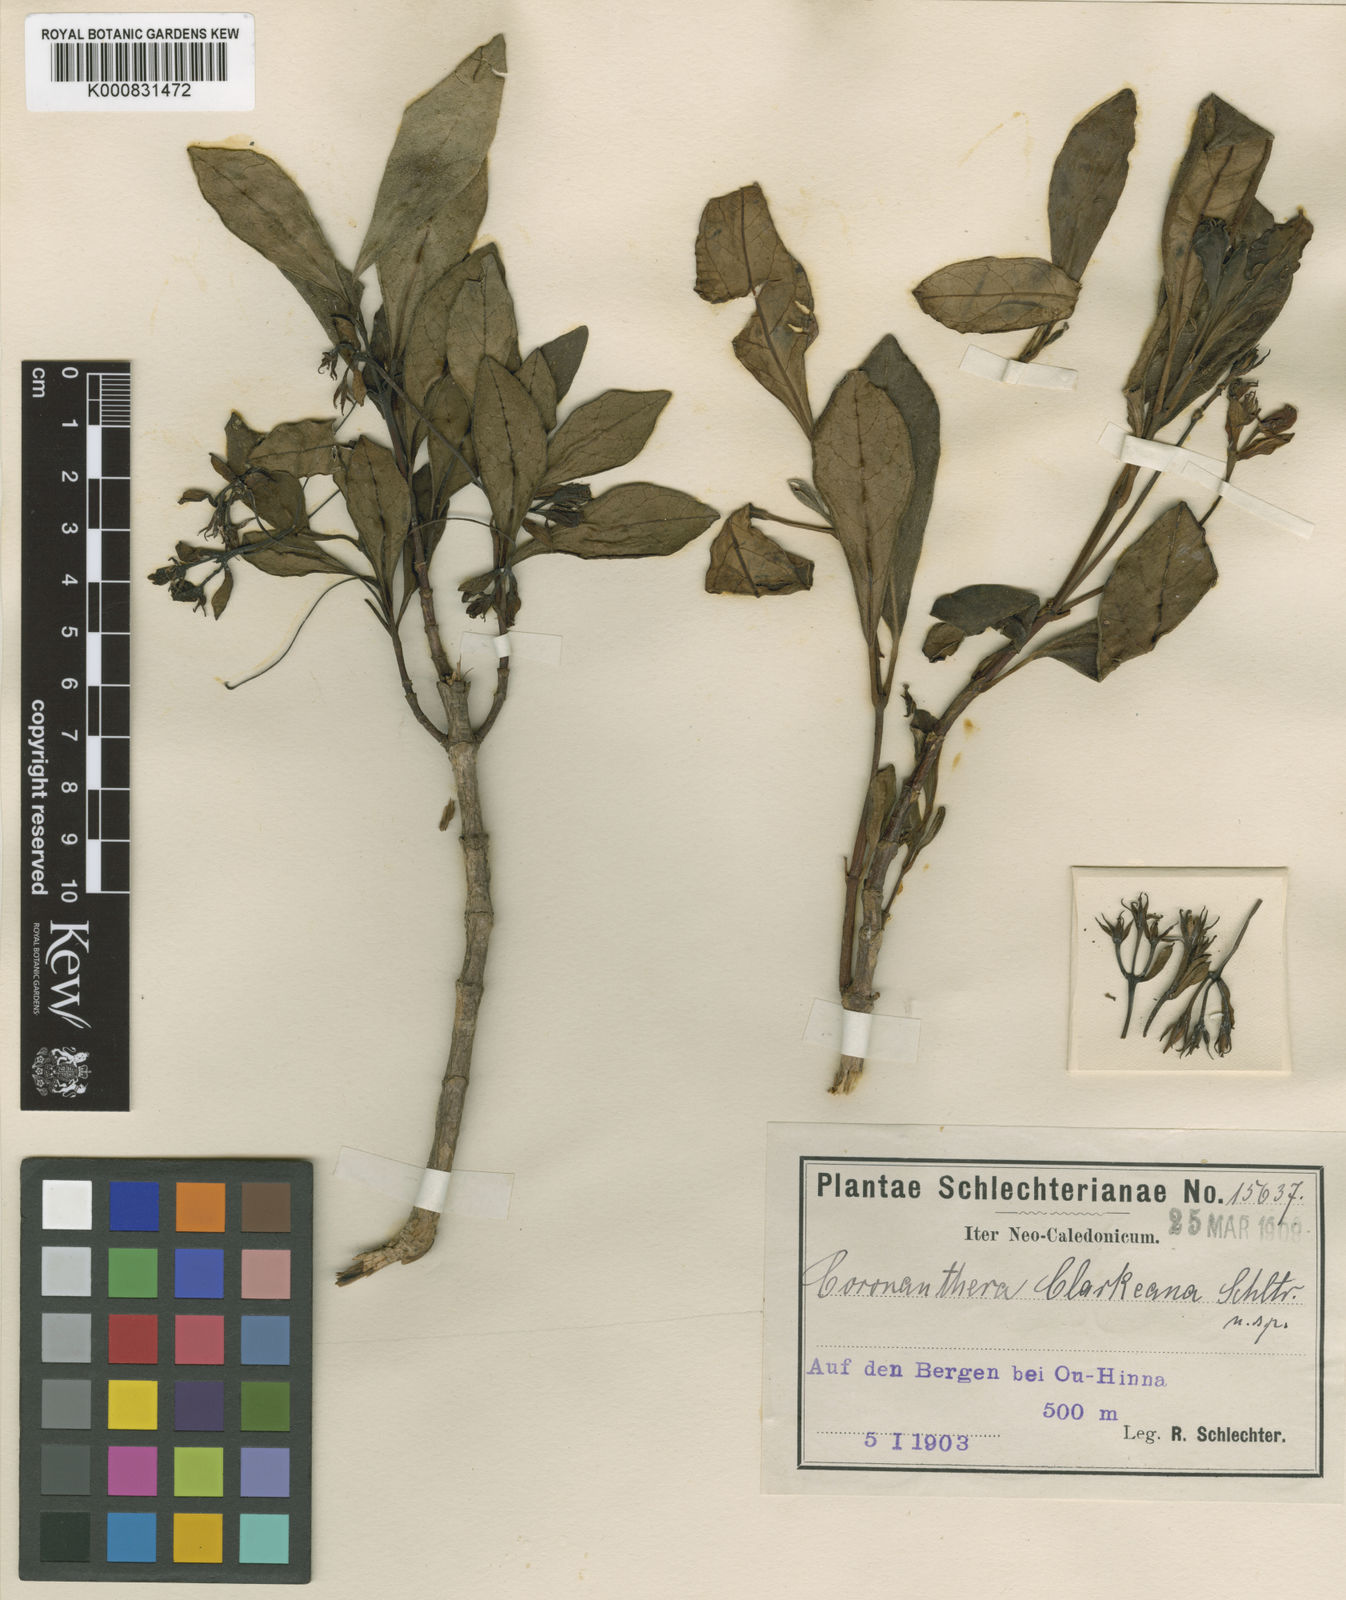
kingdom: Plantae
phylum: Tracheophyta
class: Magnoliopsida
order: Lamiales
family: Gesneriaceae
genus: Coronanthera
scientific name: Coronanthera clarkeana
